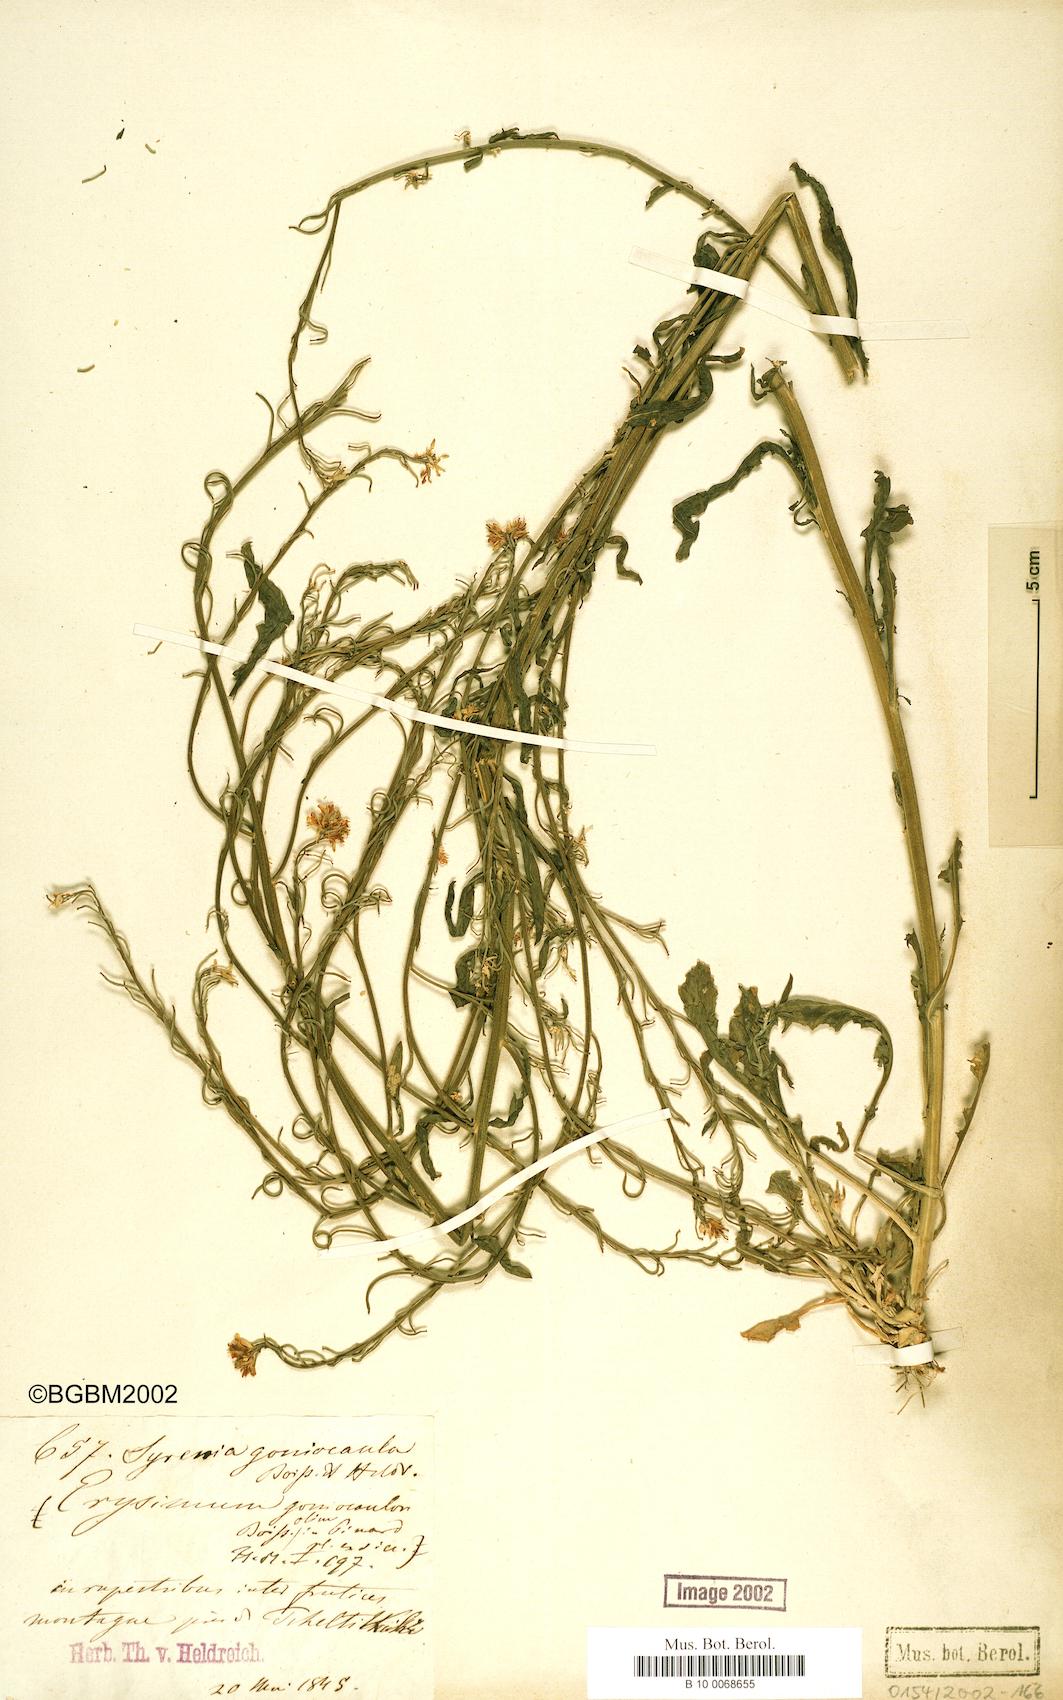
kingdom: Plantae
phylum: Tracheophyta
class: Magnoliopsida
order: Brassicales
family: Brassicaceae
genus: Erysimum
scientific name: Erysimum scabrum
